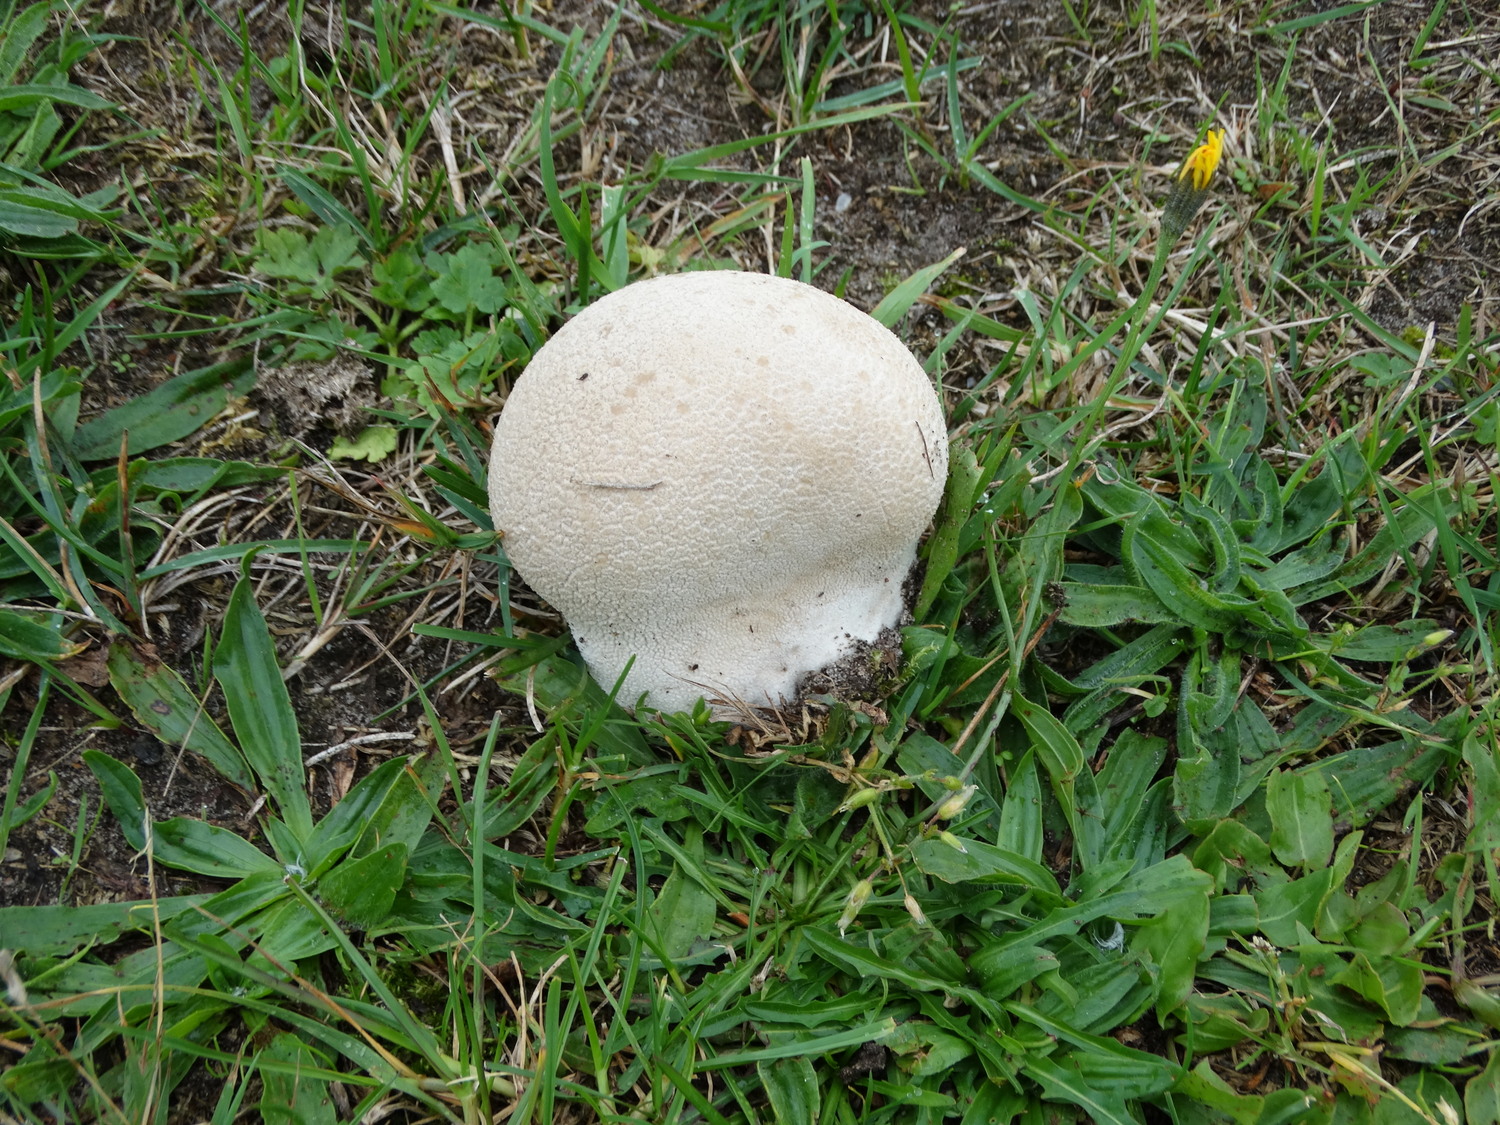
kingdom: Fungi
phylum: Basidiomycota
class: Agaricomycetes
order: Agaricales
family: Lycoperdaceae
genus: Bovistella
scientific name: Bovistella utriformis
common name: skællet støvbold
